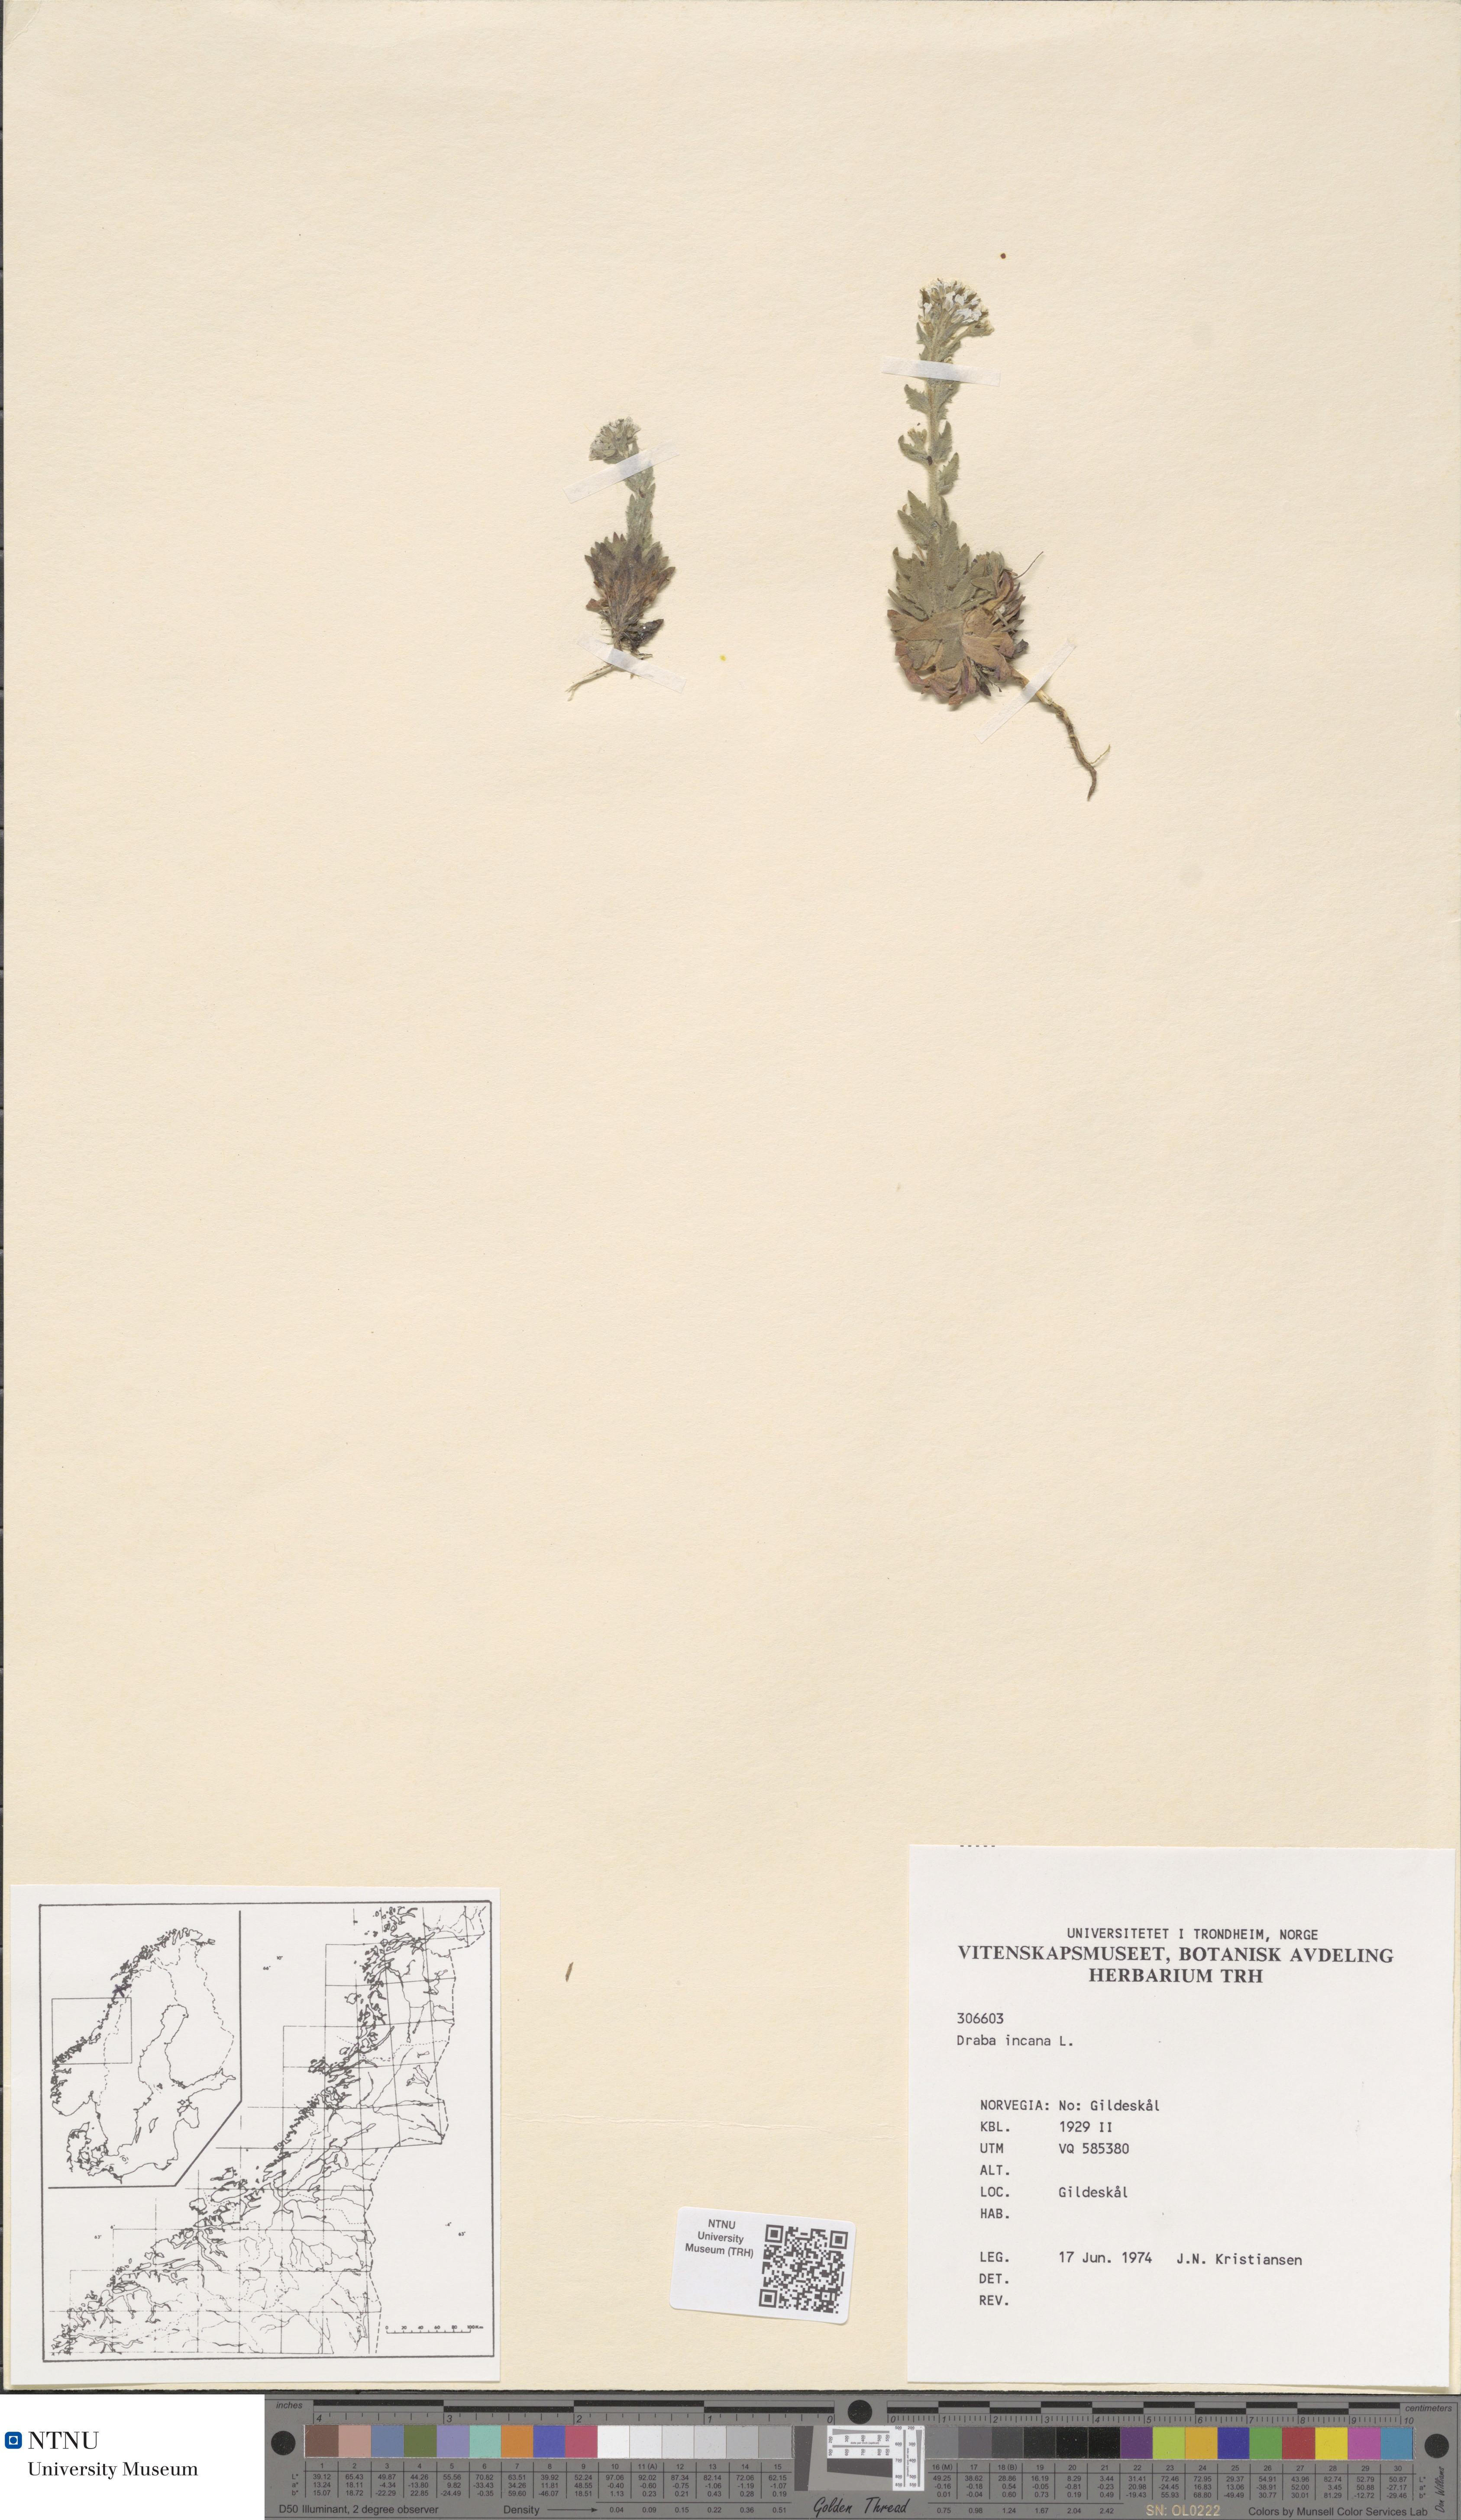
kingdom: Plantae
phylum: Tracheophyta
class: Magnoliopsida
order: Brassicales
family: Brassicaceae
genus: Draba
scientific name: Draba incana
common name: Hoary whitlow-grass
